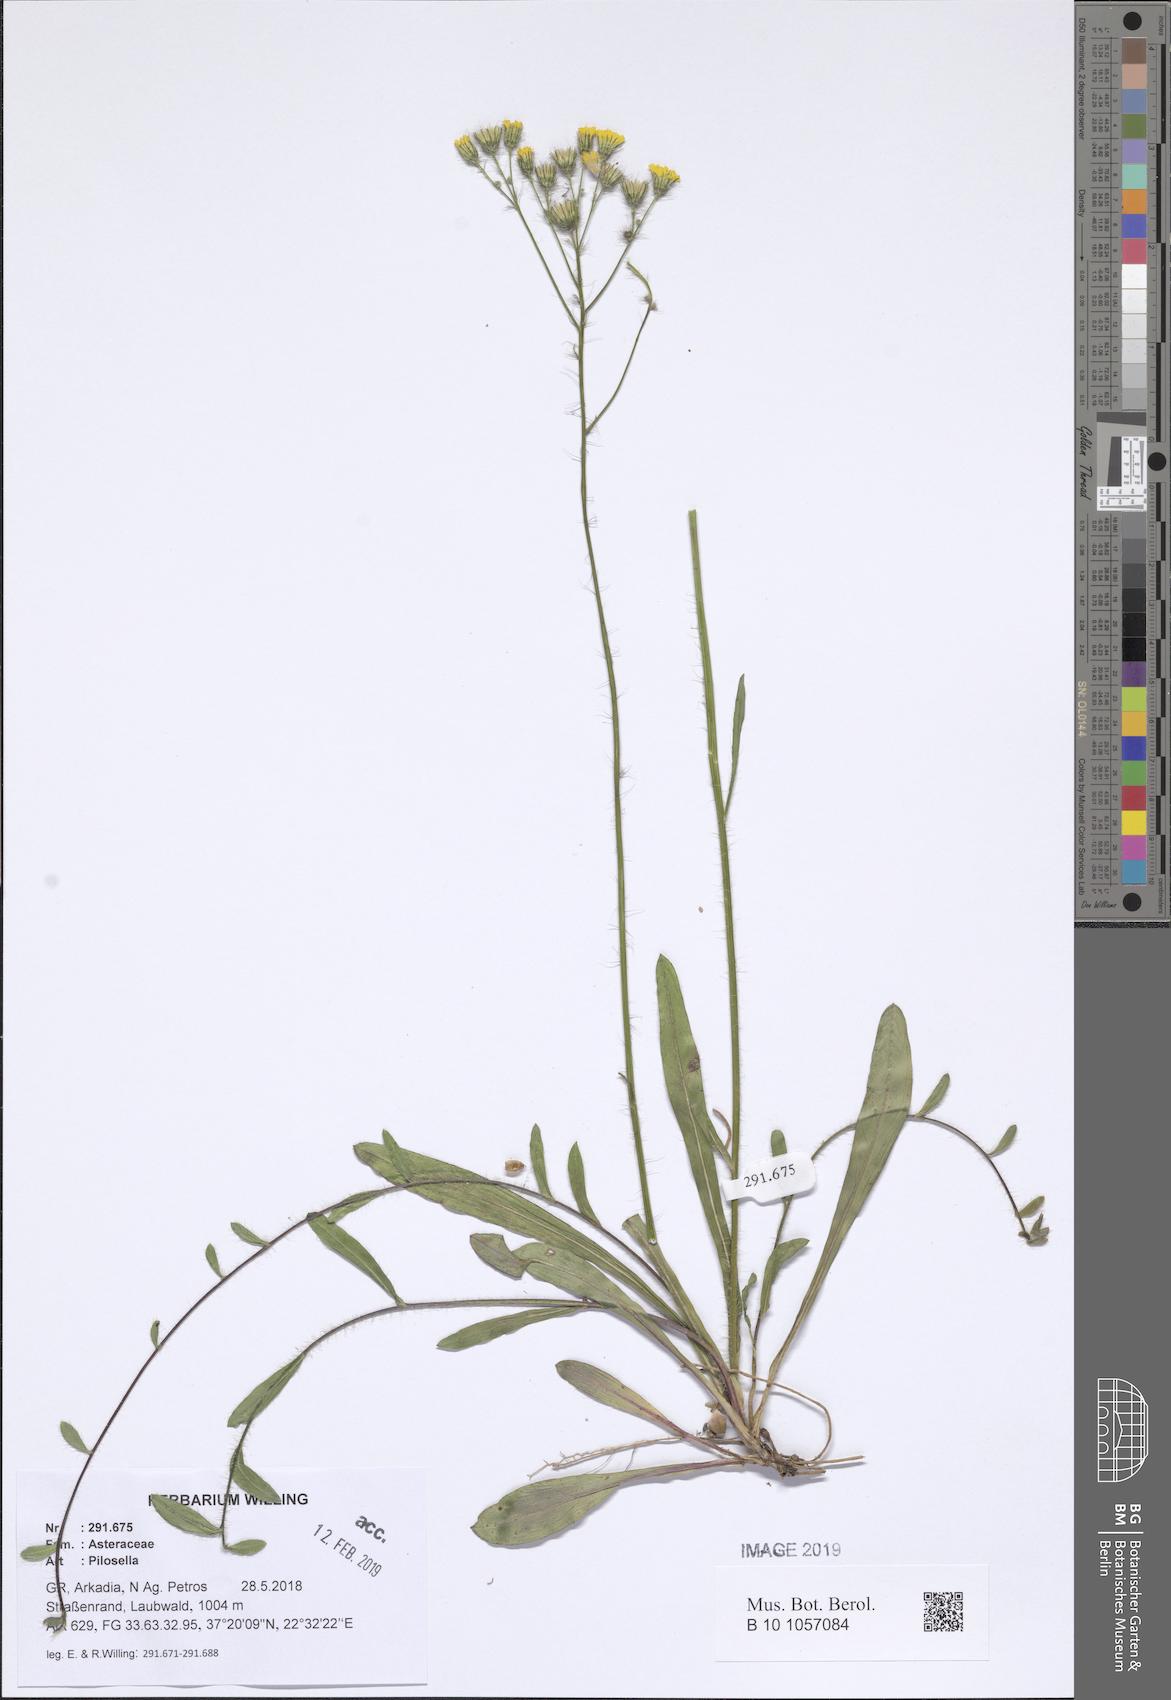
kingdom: Plantae
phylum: Tracheophyta
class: Magnoliopsida
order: Asterales
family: Asteraceae
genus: Pilosella
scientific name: Pilosella
